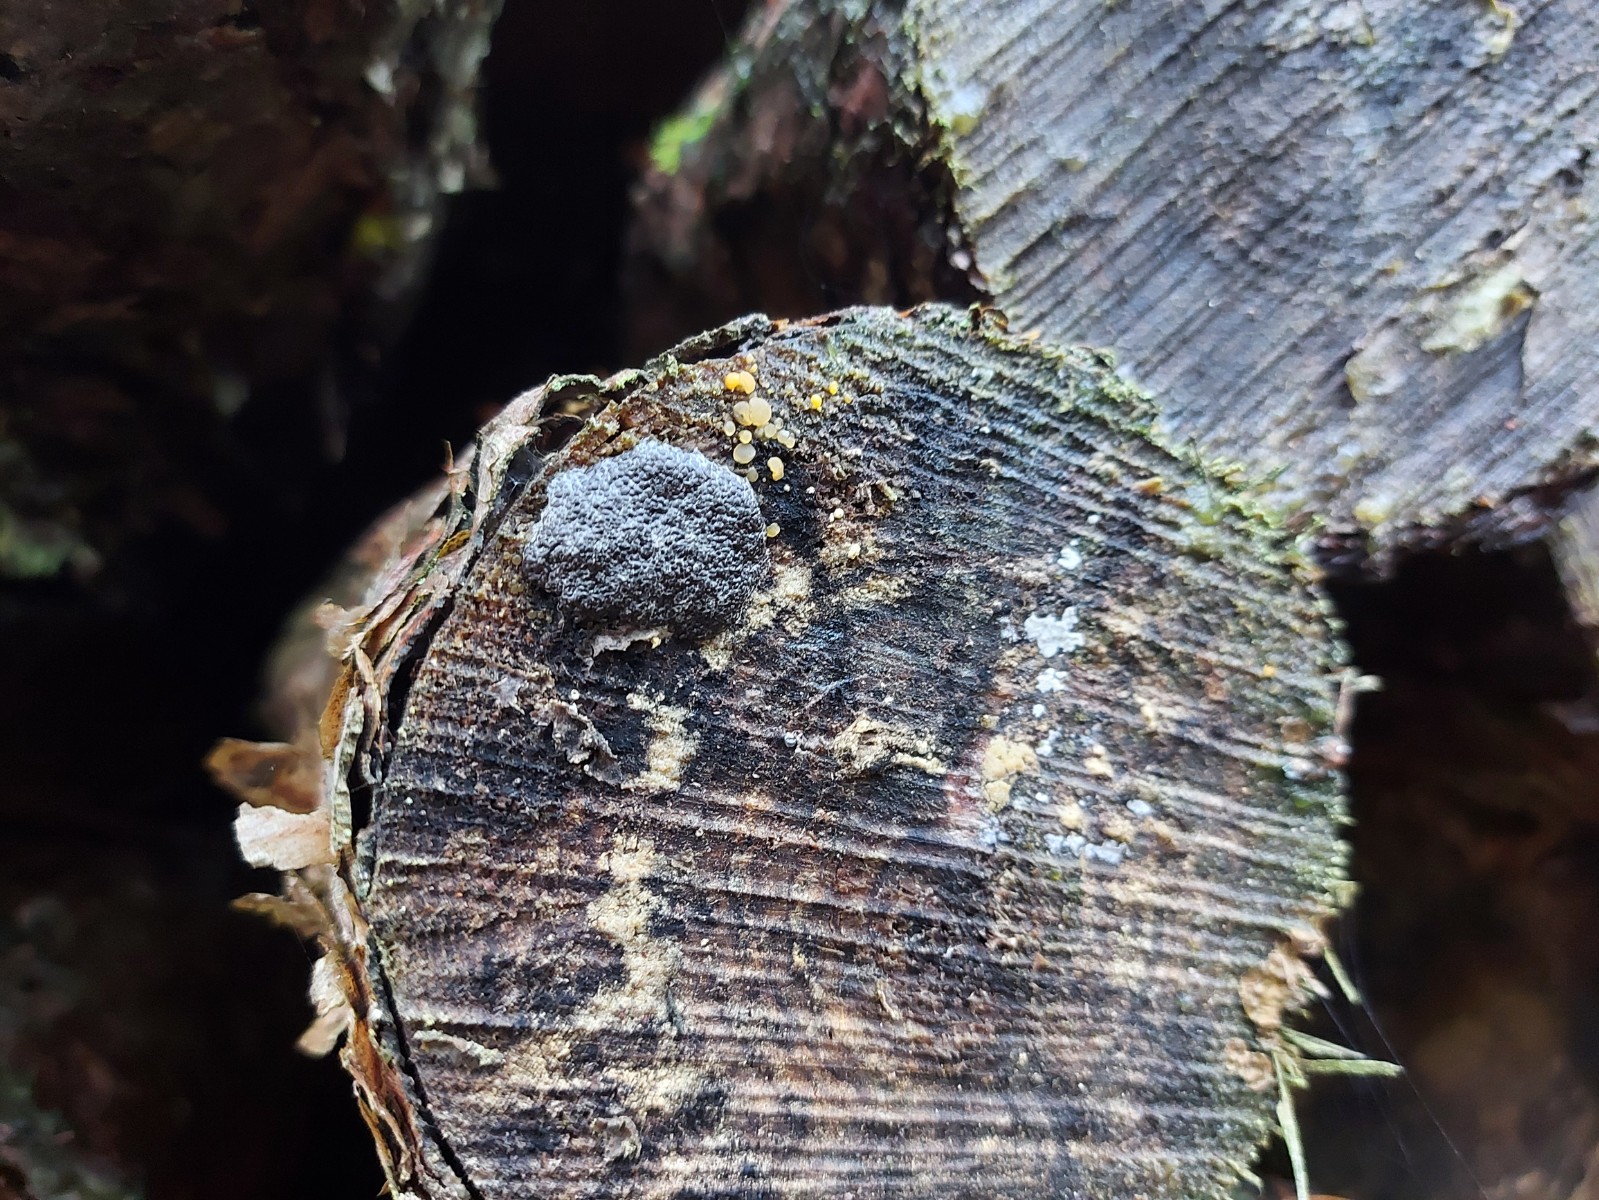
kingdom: Protozoa
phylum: Mycetozoa
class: Myxomycetes
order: Trichiales
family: Dictydiaethaliaceae
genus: Dictydiaethalium
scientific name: Dictydiaethalium plumbeum
